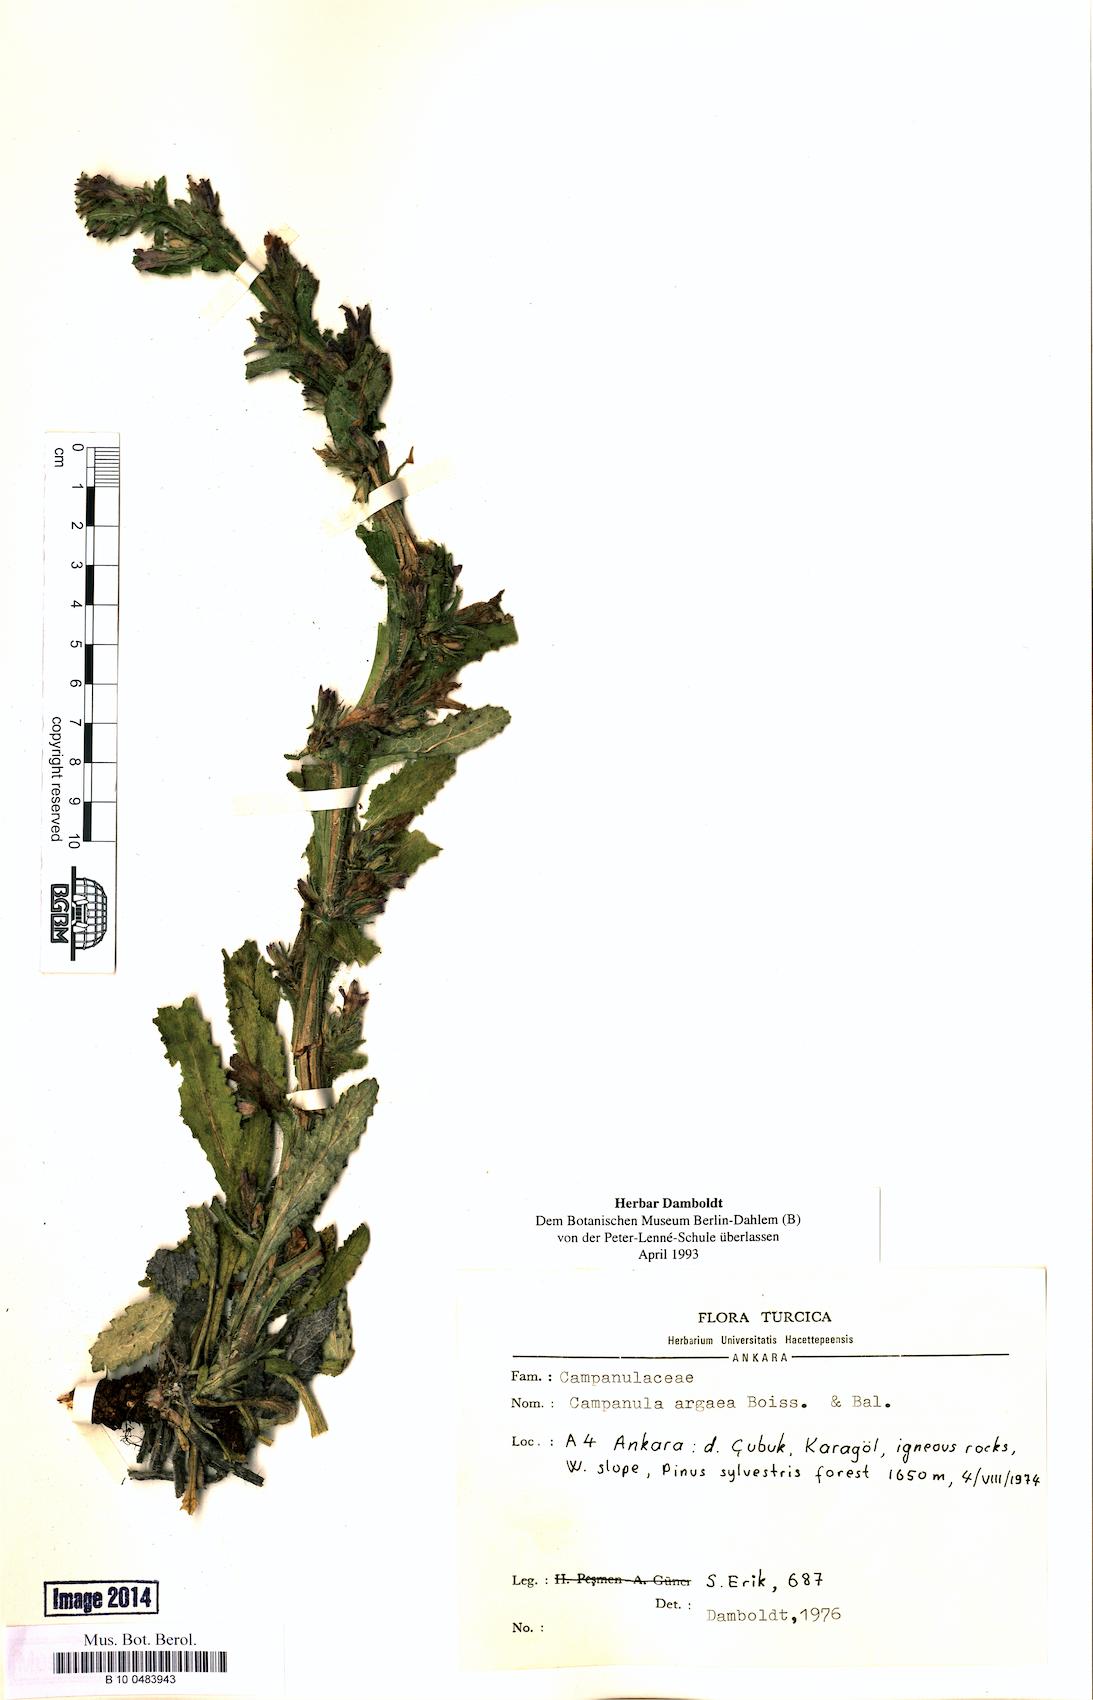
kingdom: Plantae
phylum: Tracheophyta
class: Magnoliopsida
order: Asterales
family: Campanulaceae
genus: Campanula
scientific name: Campanula ajugifolia
